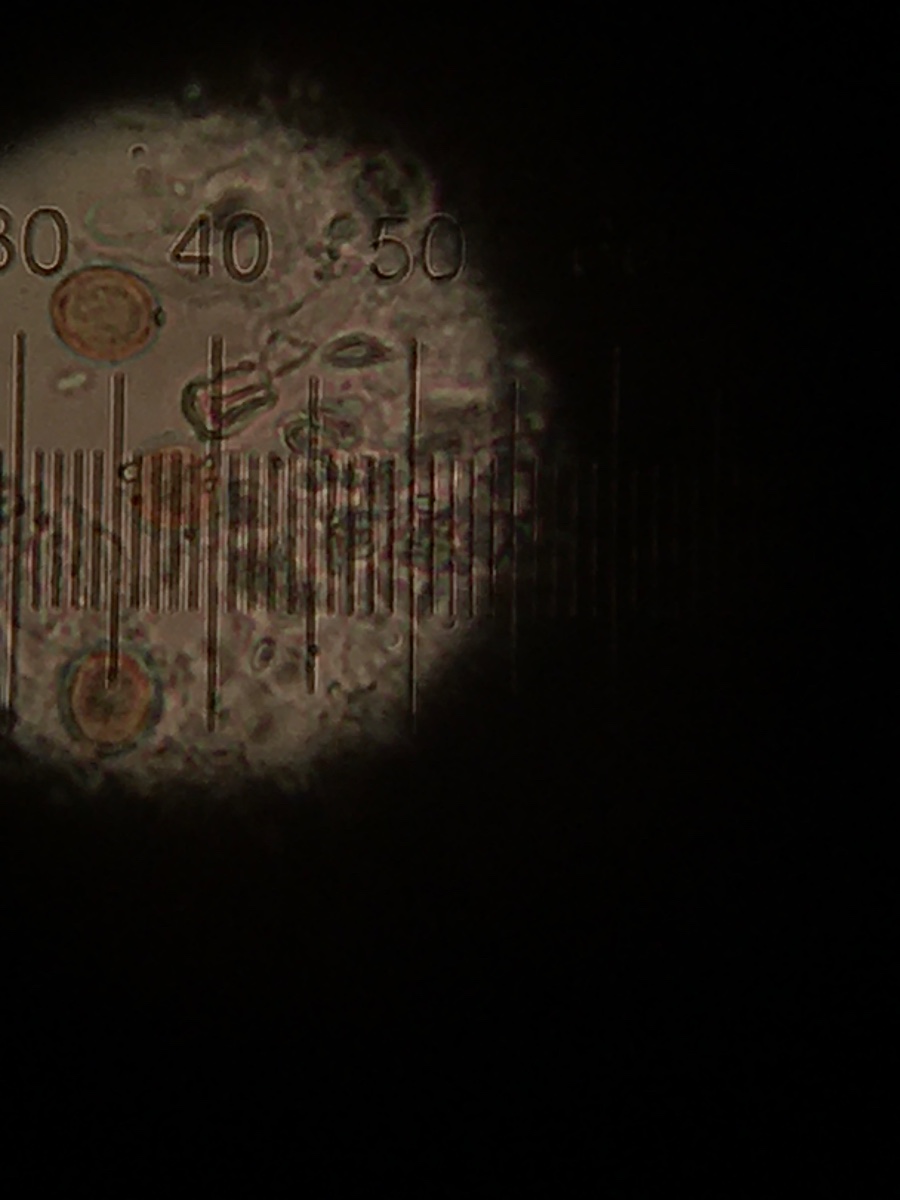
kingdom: Fungi
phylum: Basidiomycota
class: Agaricomycetes
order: Agaricales
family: Chromocyphellaceae
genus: Chromocyphella
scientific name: Chromocyphella muscicola
